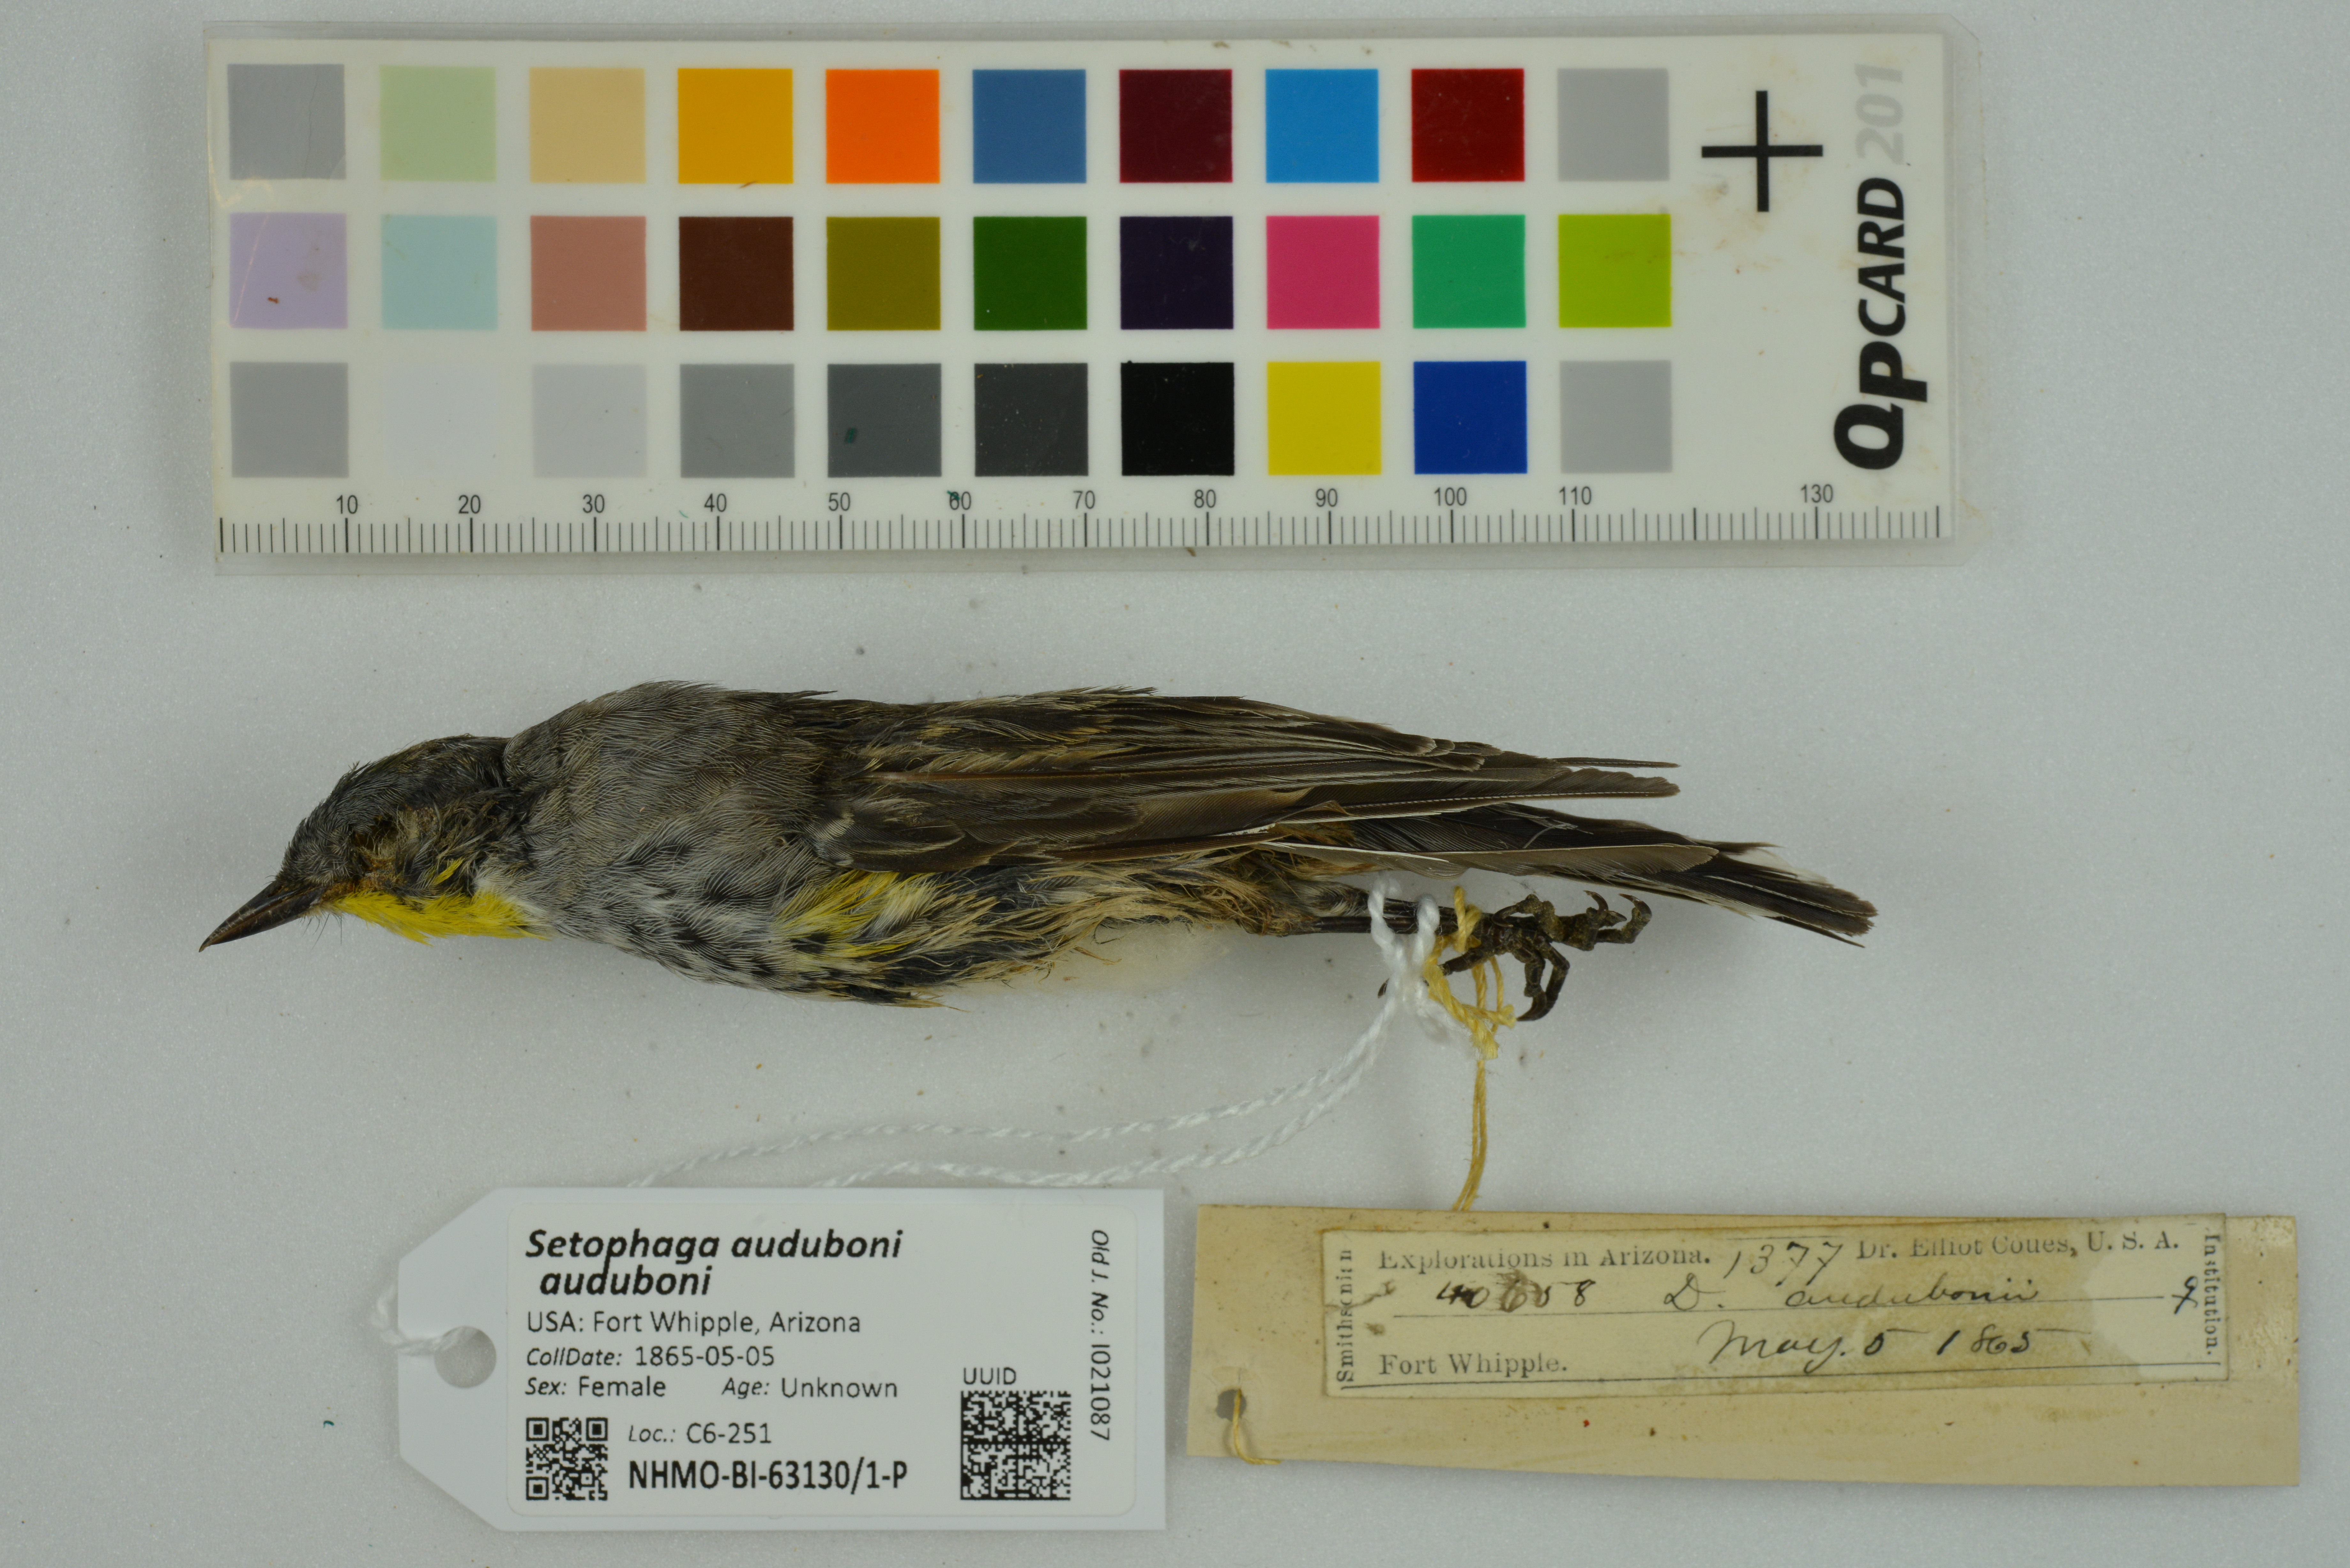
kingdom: Animalia
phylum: Chordata
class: Aves
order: Passeriformes
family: Parulidae
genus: Setophaga
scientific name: Setophaga auduboni
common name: Audubon's warbler
